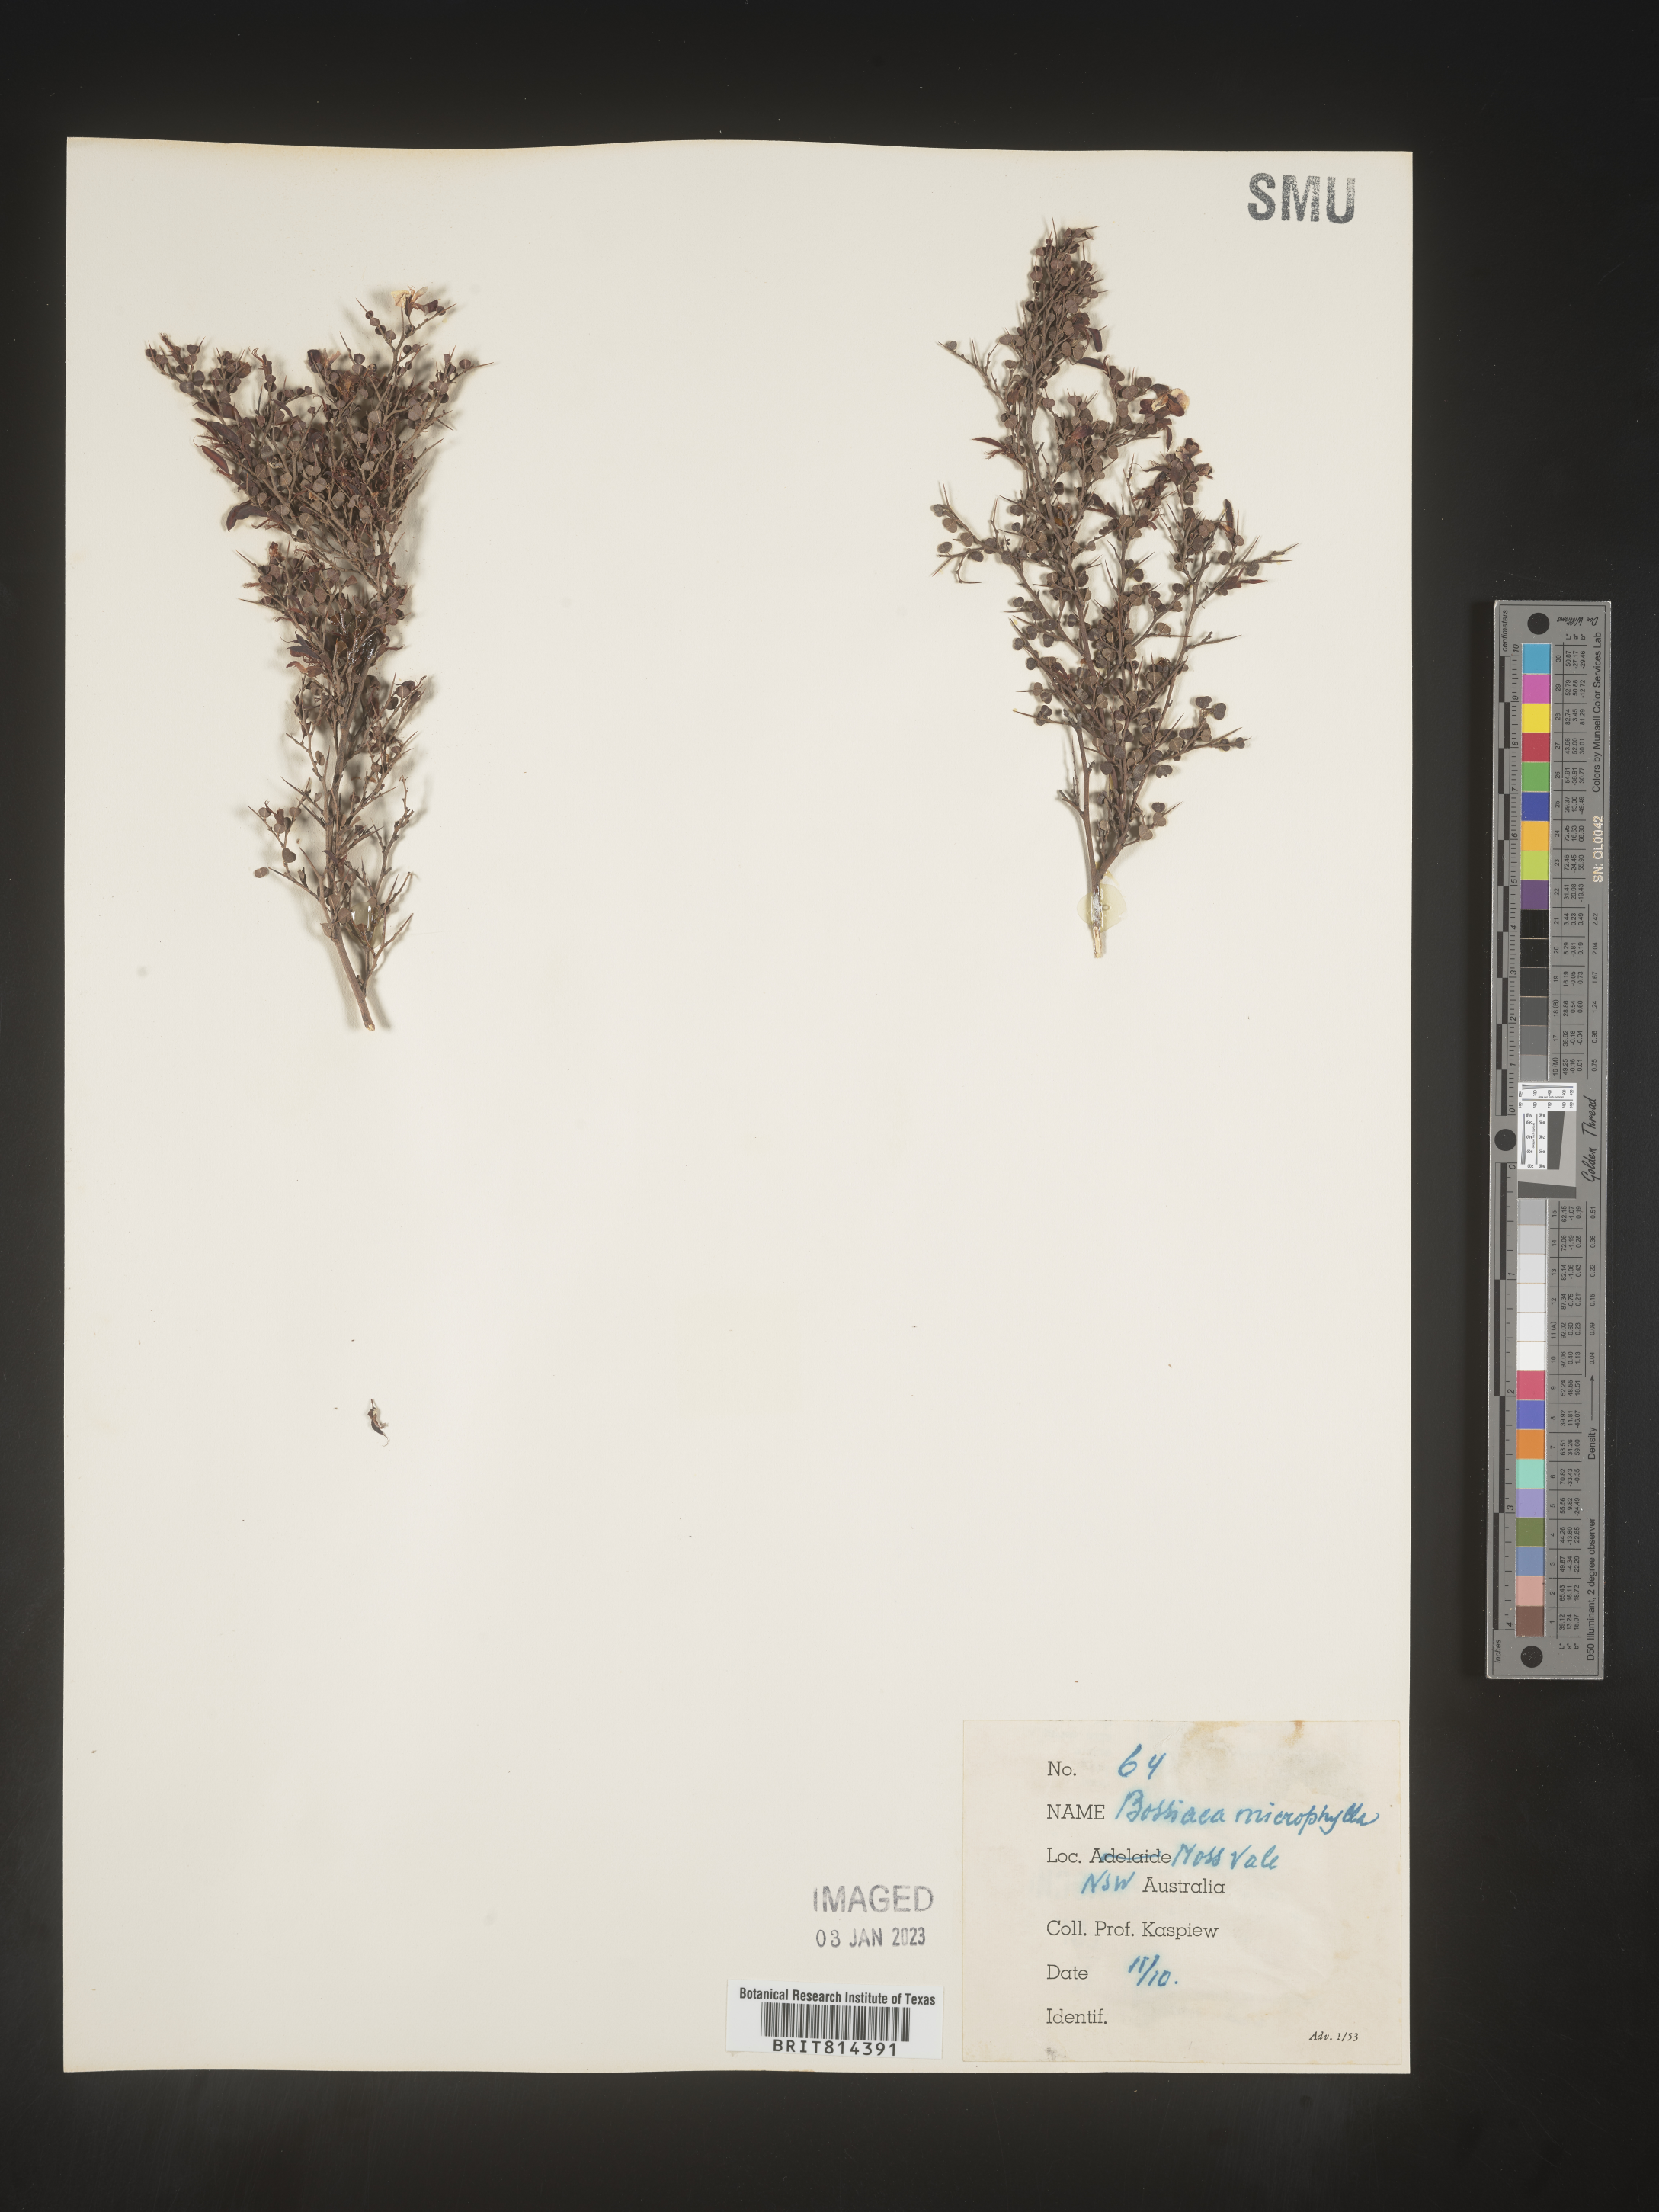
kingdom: Plantae
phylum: Tracheophyta
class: Magnoliopsida
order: Fabales
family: Fabaceae
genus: Bossiaea
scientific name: Bossiaea
